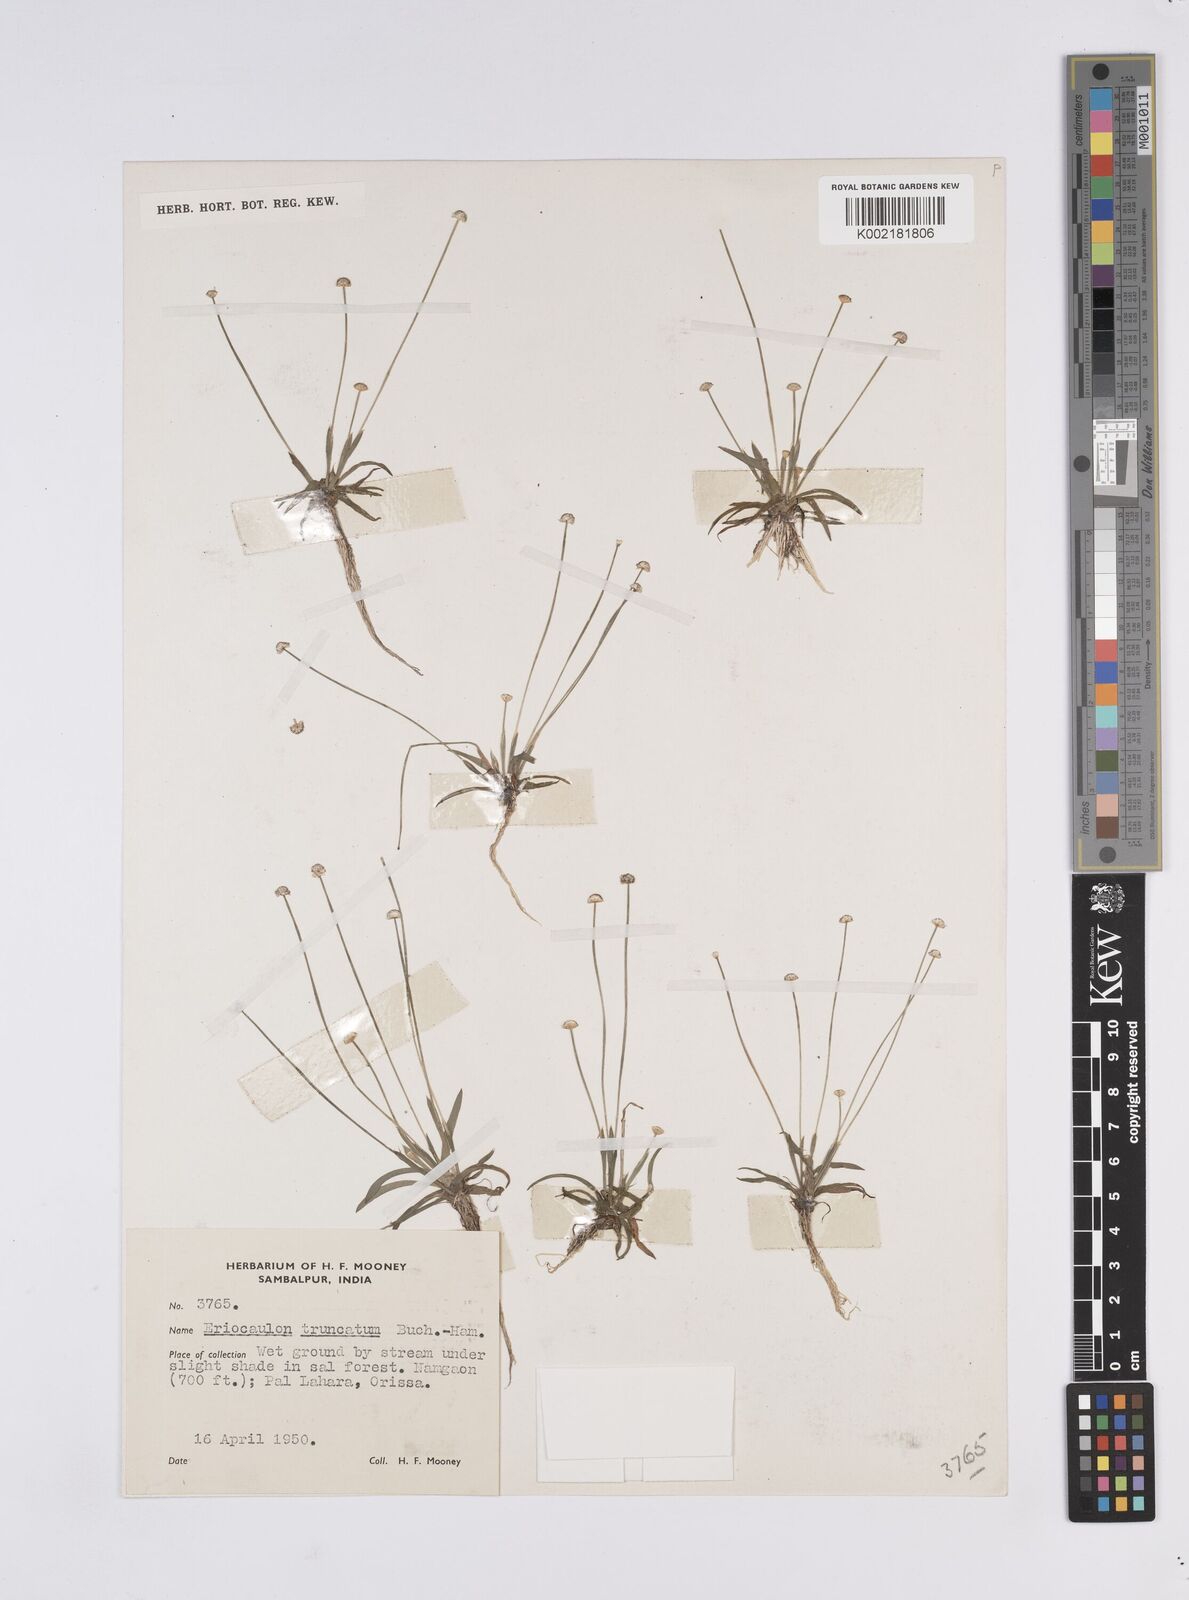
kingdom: Plantae
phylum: Tracheophyta
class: Liliopsida
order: Poales
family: Eriocaulaceae
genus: Eriocaulon
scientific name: Eriocaulon truncatum
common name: Short pipe-wort
